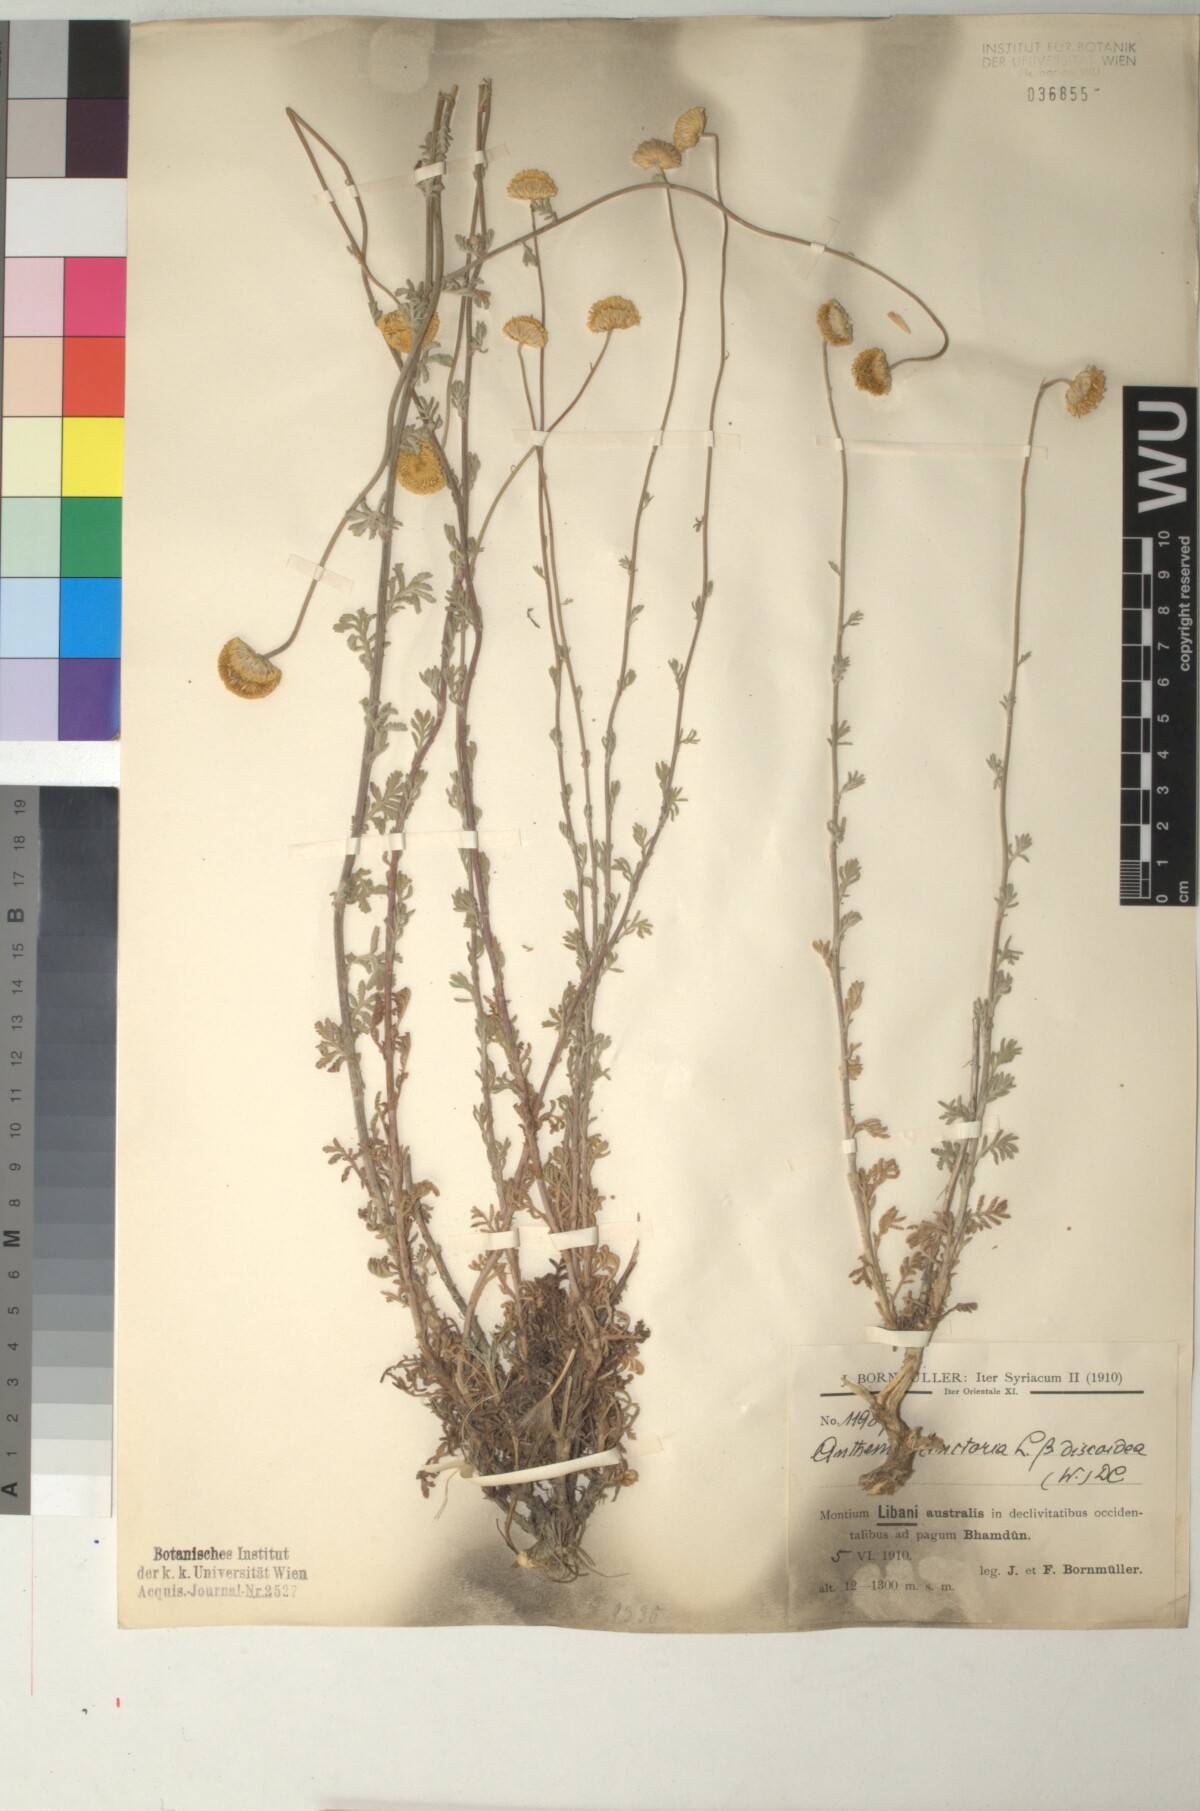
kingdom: Plantae
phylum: Tracheophyta
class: Magnoliopsida
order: Asterales
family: Asteraceae
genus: Cota
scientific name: Cota tinctoria
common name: Golden chamomile
